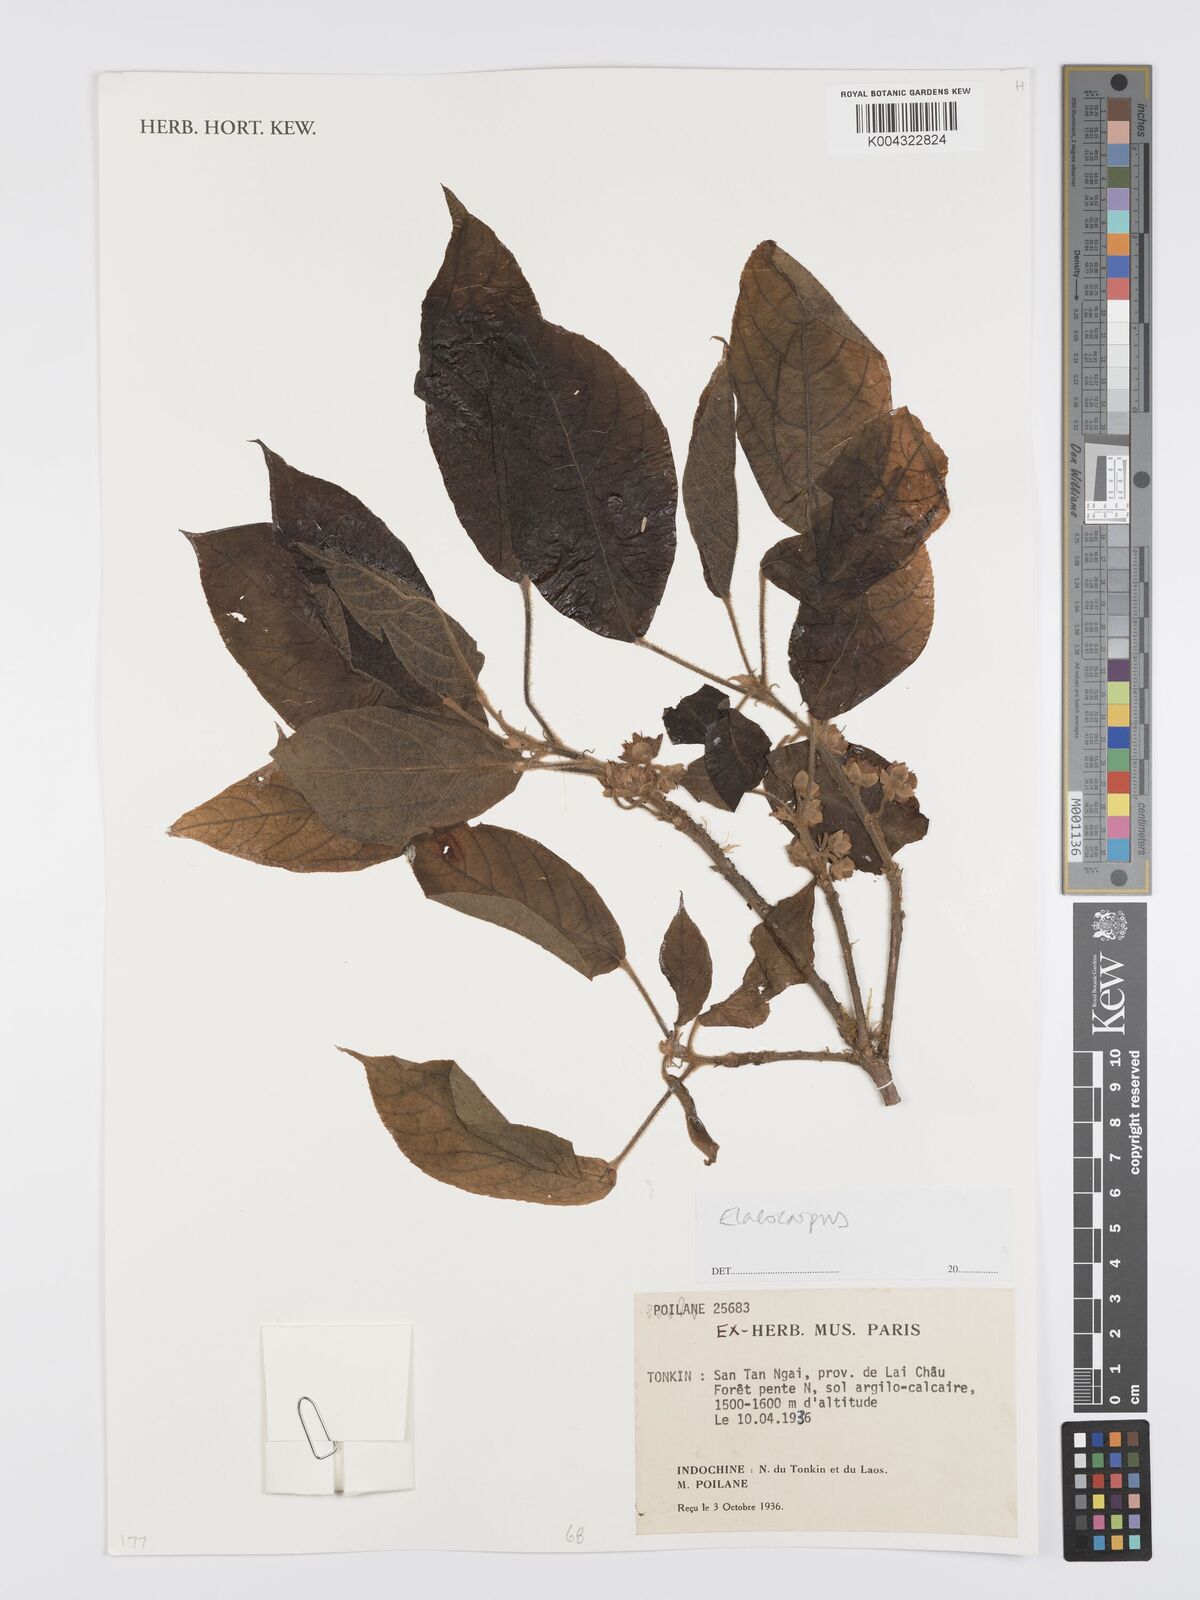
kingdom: Plantae
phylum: Tracheophyta
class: Magnoliopsida
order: Oxalidales
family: Elaeocarpaceae
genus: Elaeocarpus
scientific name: Elaeocarpus
